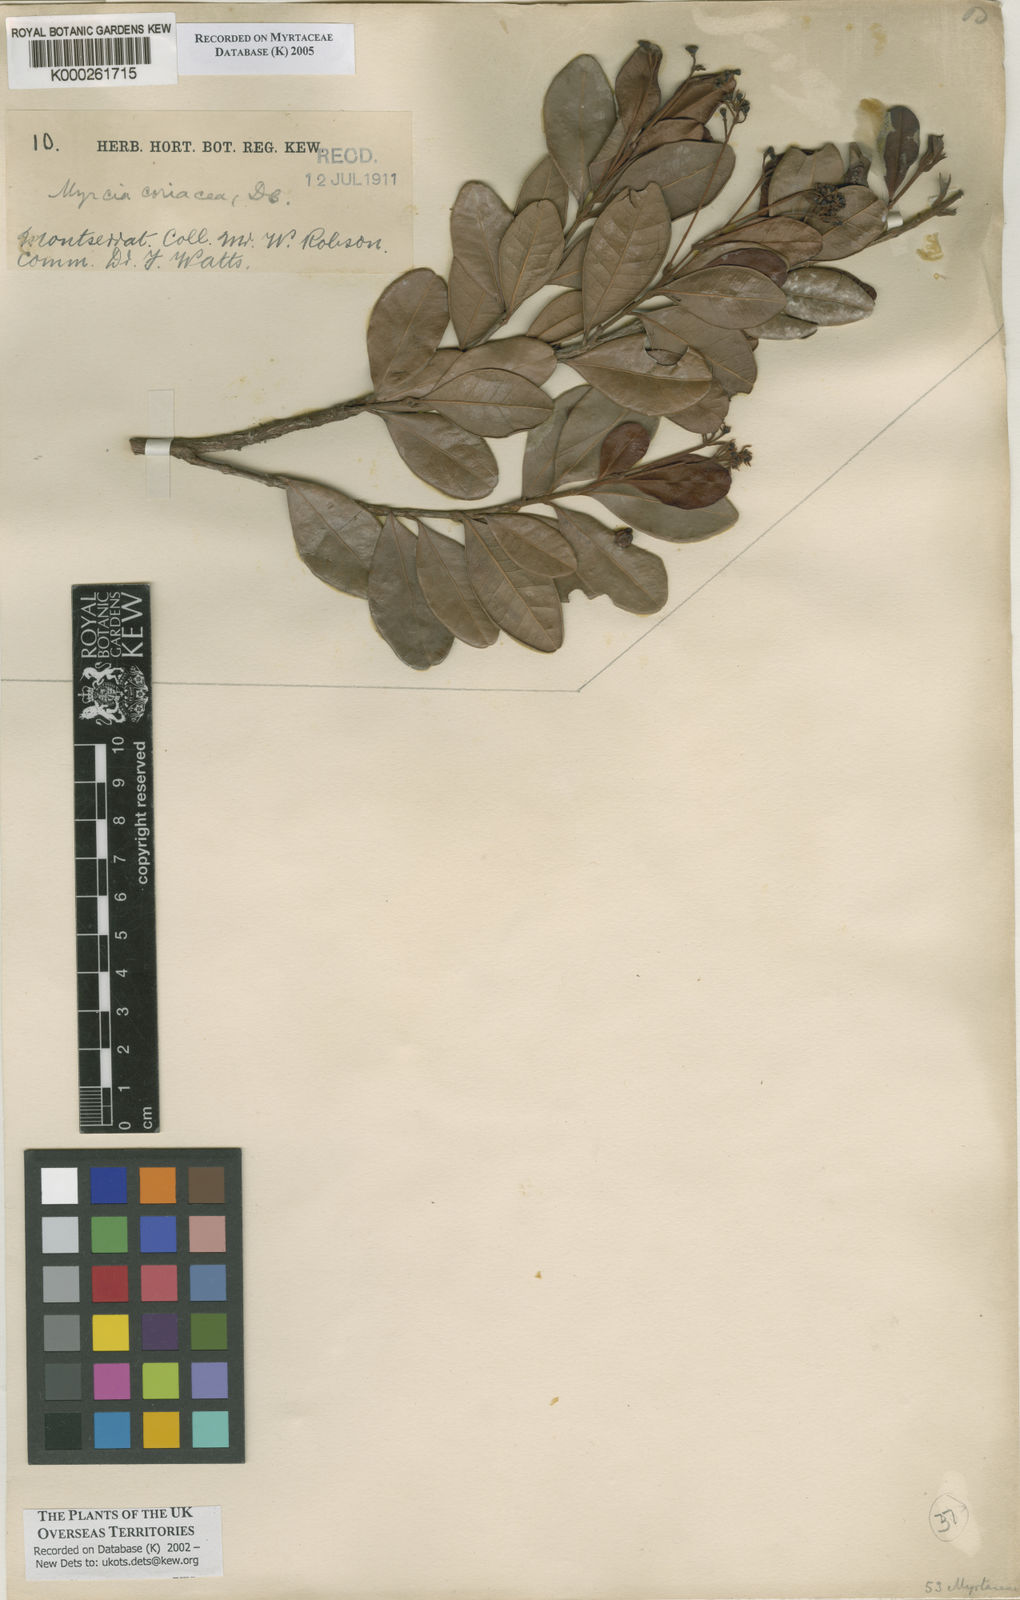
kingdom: Plantae
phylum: Tracheophyta
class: Magnoliopsida
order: Myrtales
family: Myrtaceae
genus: Myrcia
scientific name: Myrcia guianensis
